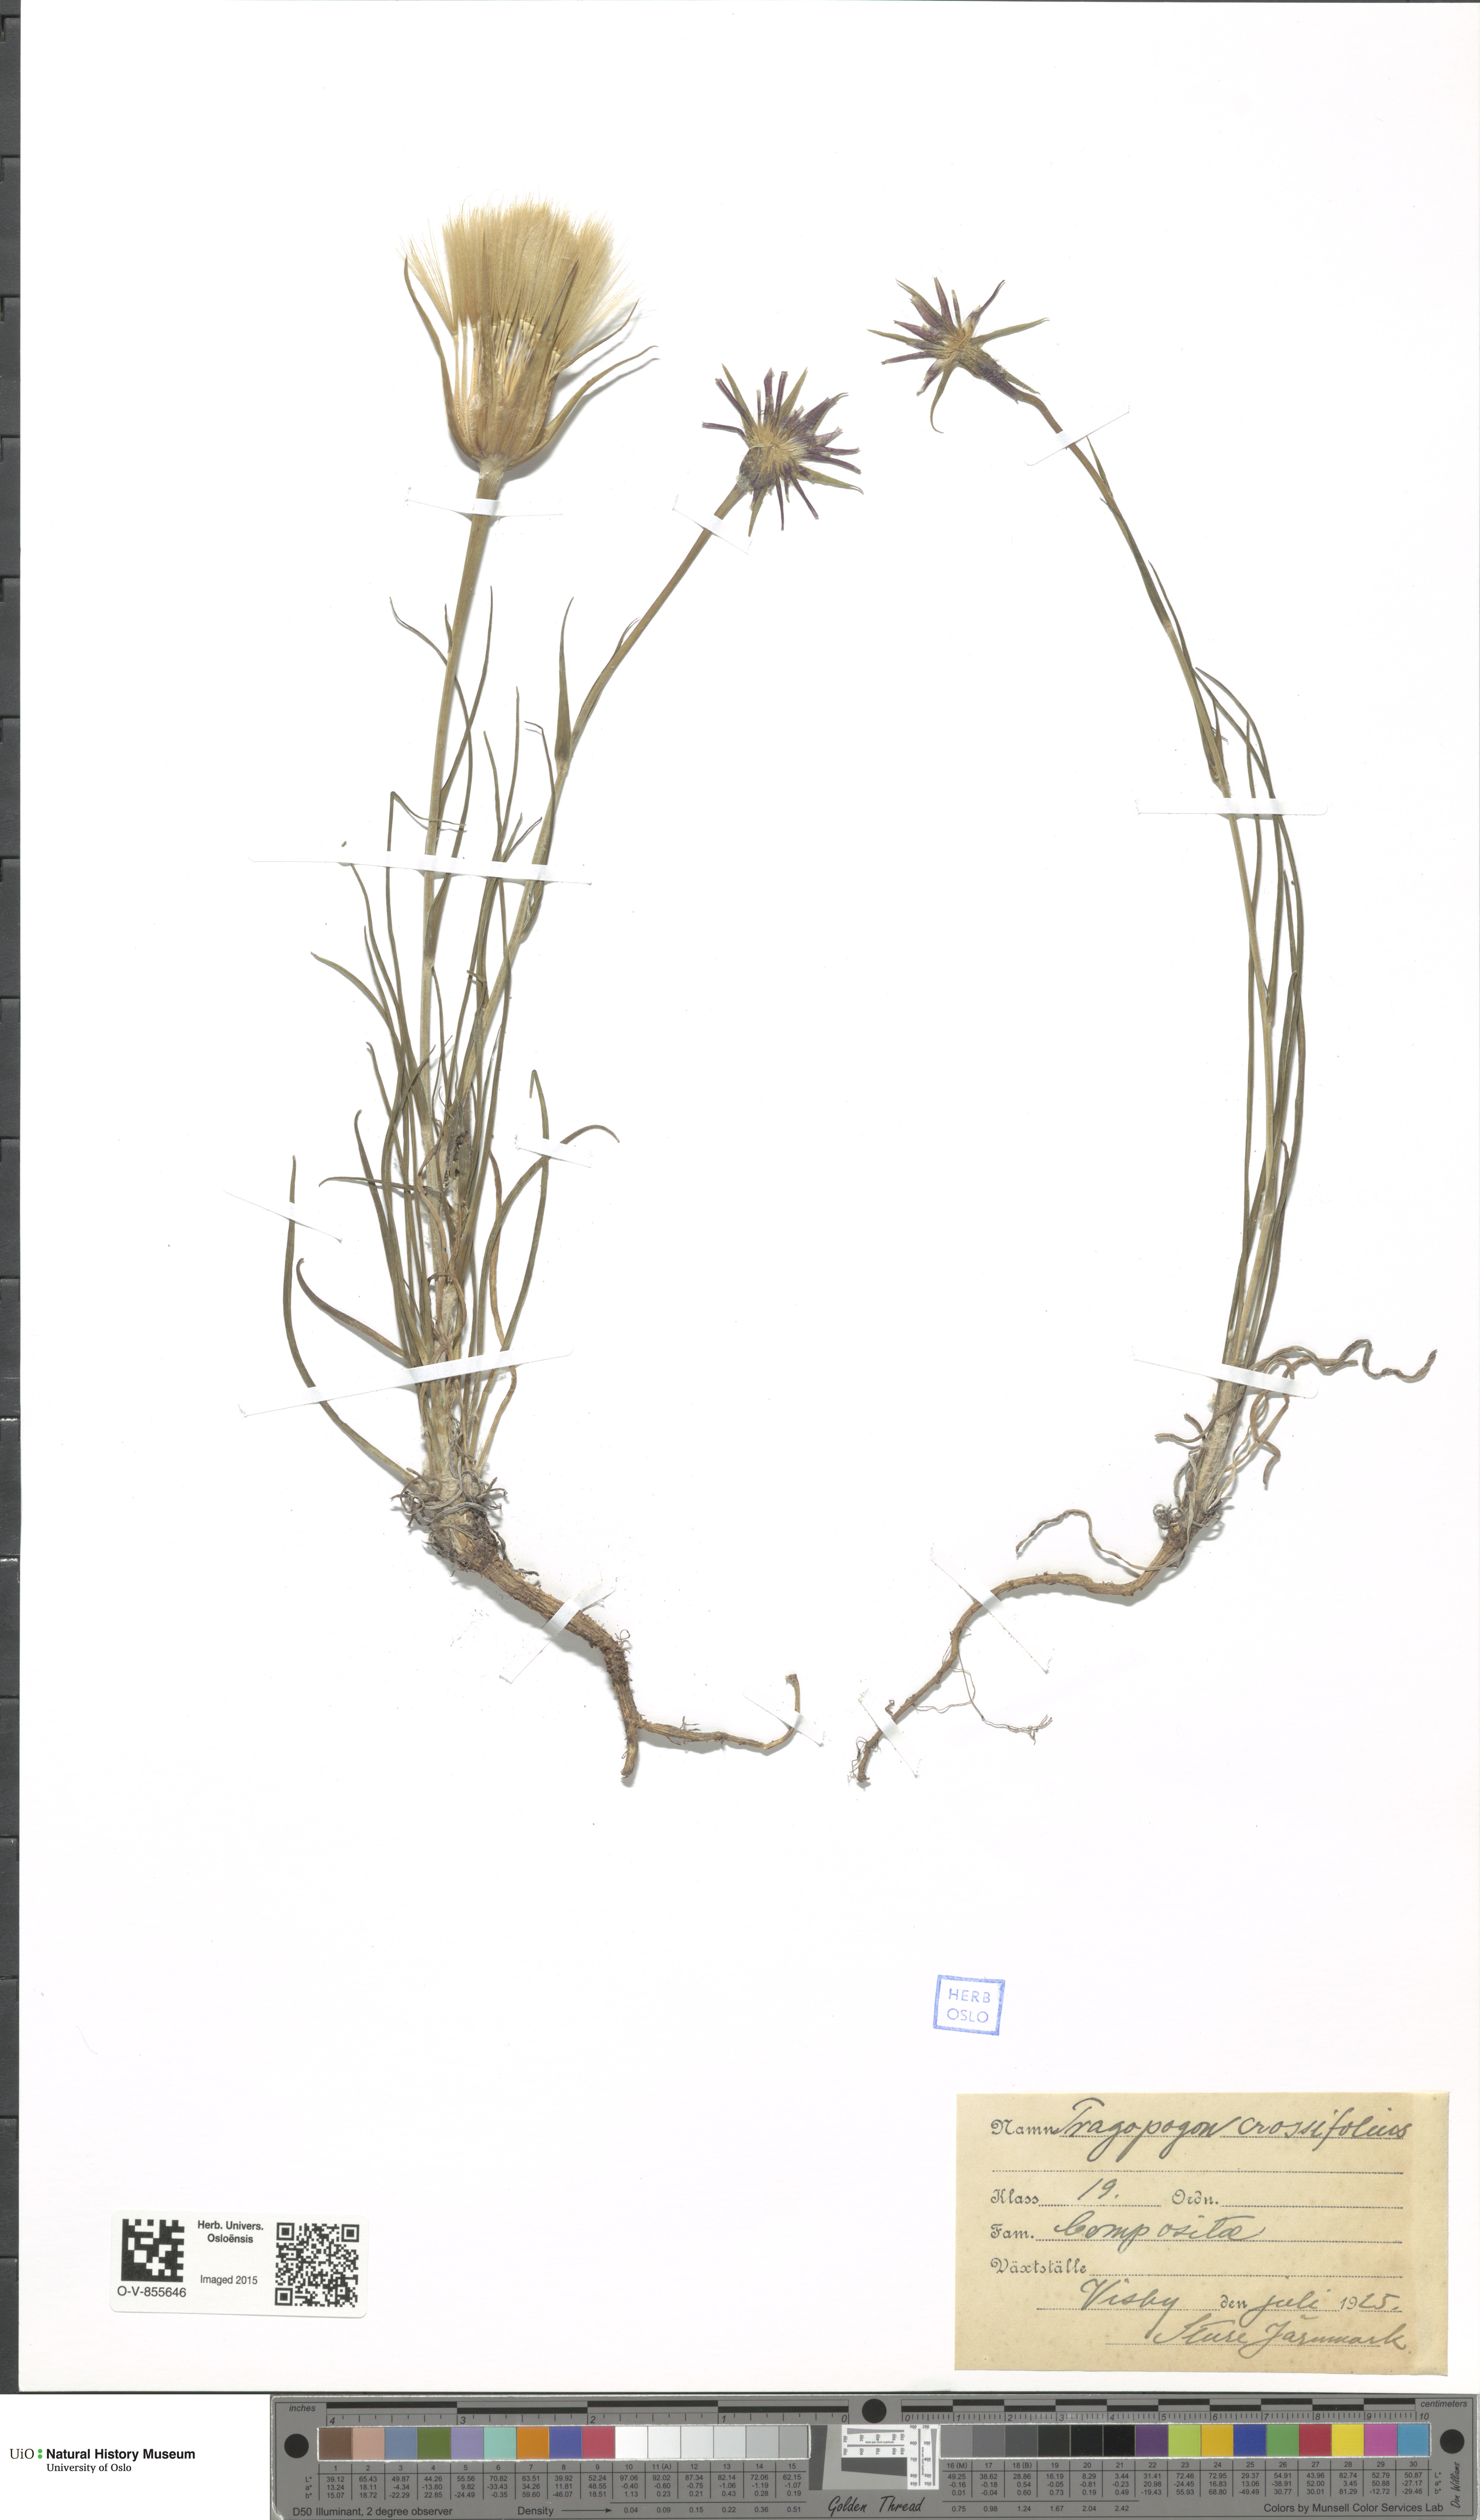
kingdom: Plantae
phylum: Tracheophyta
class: Magnoliopsida
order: Asterales
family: Asteraceae
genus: Tragopogon
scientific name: Tragopogon crocifolius
